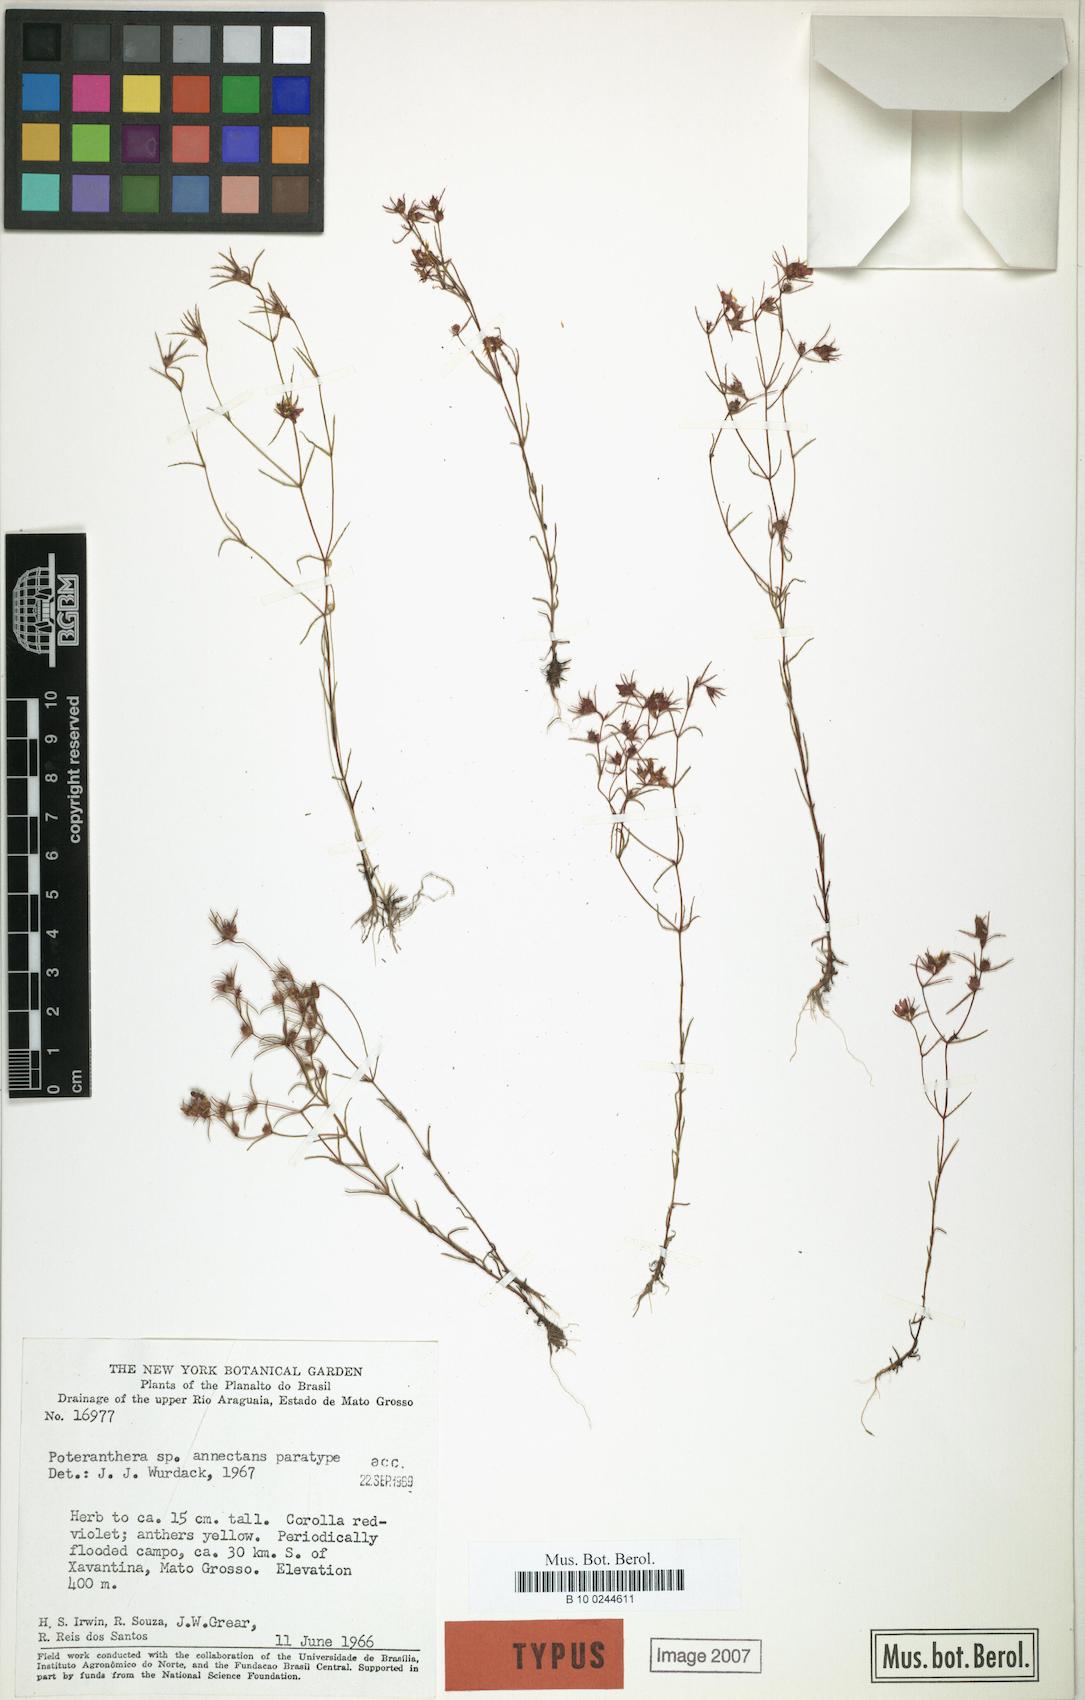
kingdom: Plantae
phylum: Tracheophyta
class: Magnoliopsida
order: Myrtales
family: Melastomataceae
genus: Poteranthera
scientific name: Poteranthera annectans
